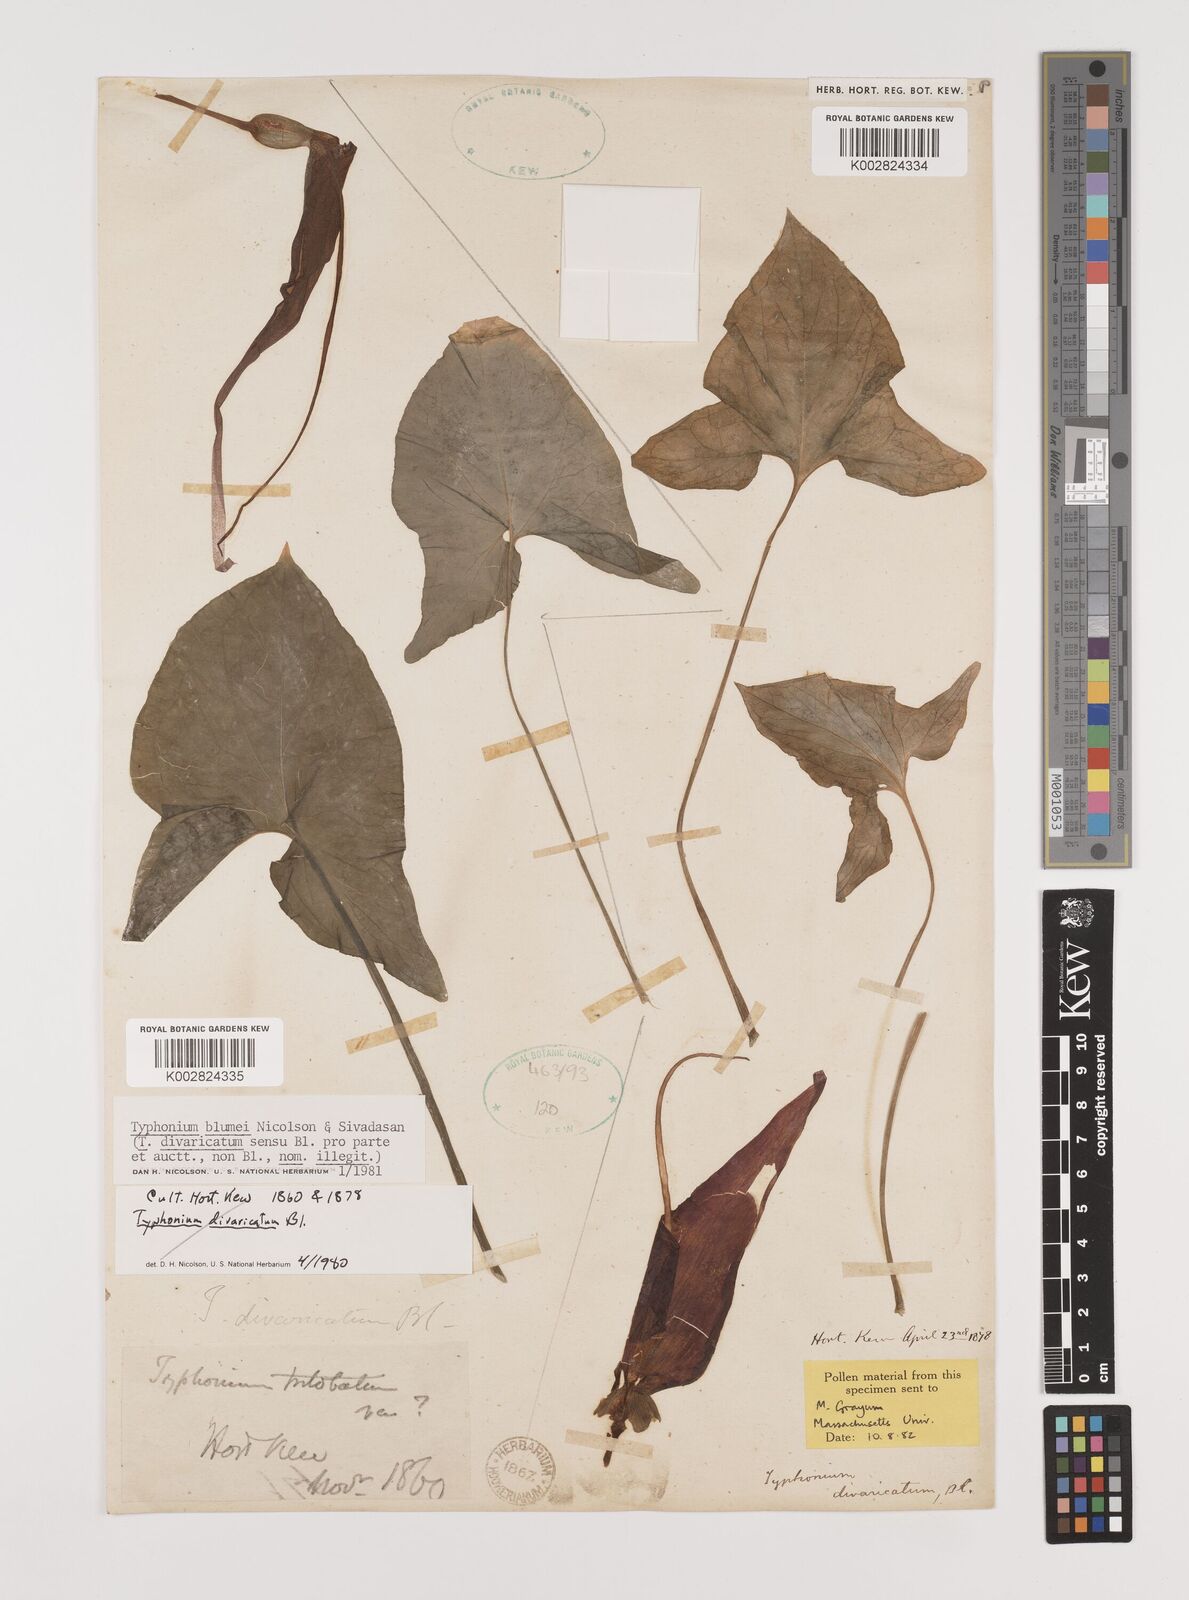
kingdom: Plantae
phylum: Tracheophyta
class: Liliopsida
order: Alismatales
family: Araceae
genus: Typhonium
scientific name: Typhonium blumei
